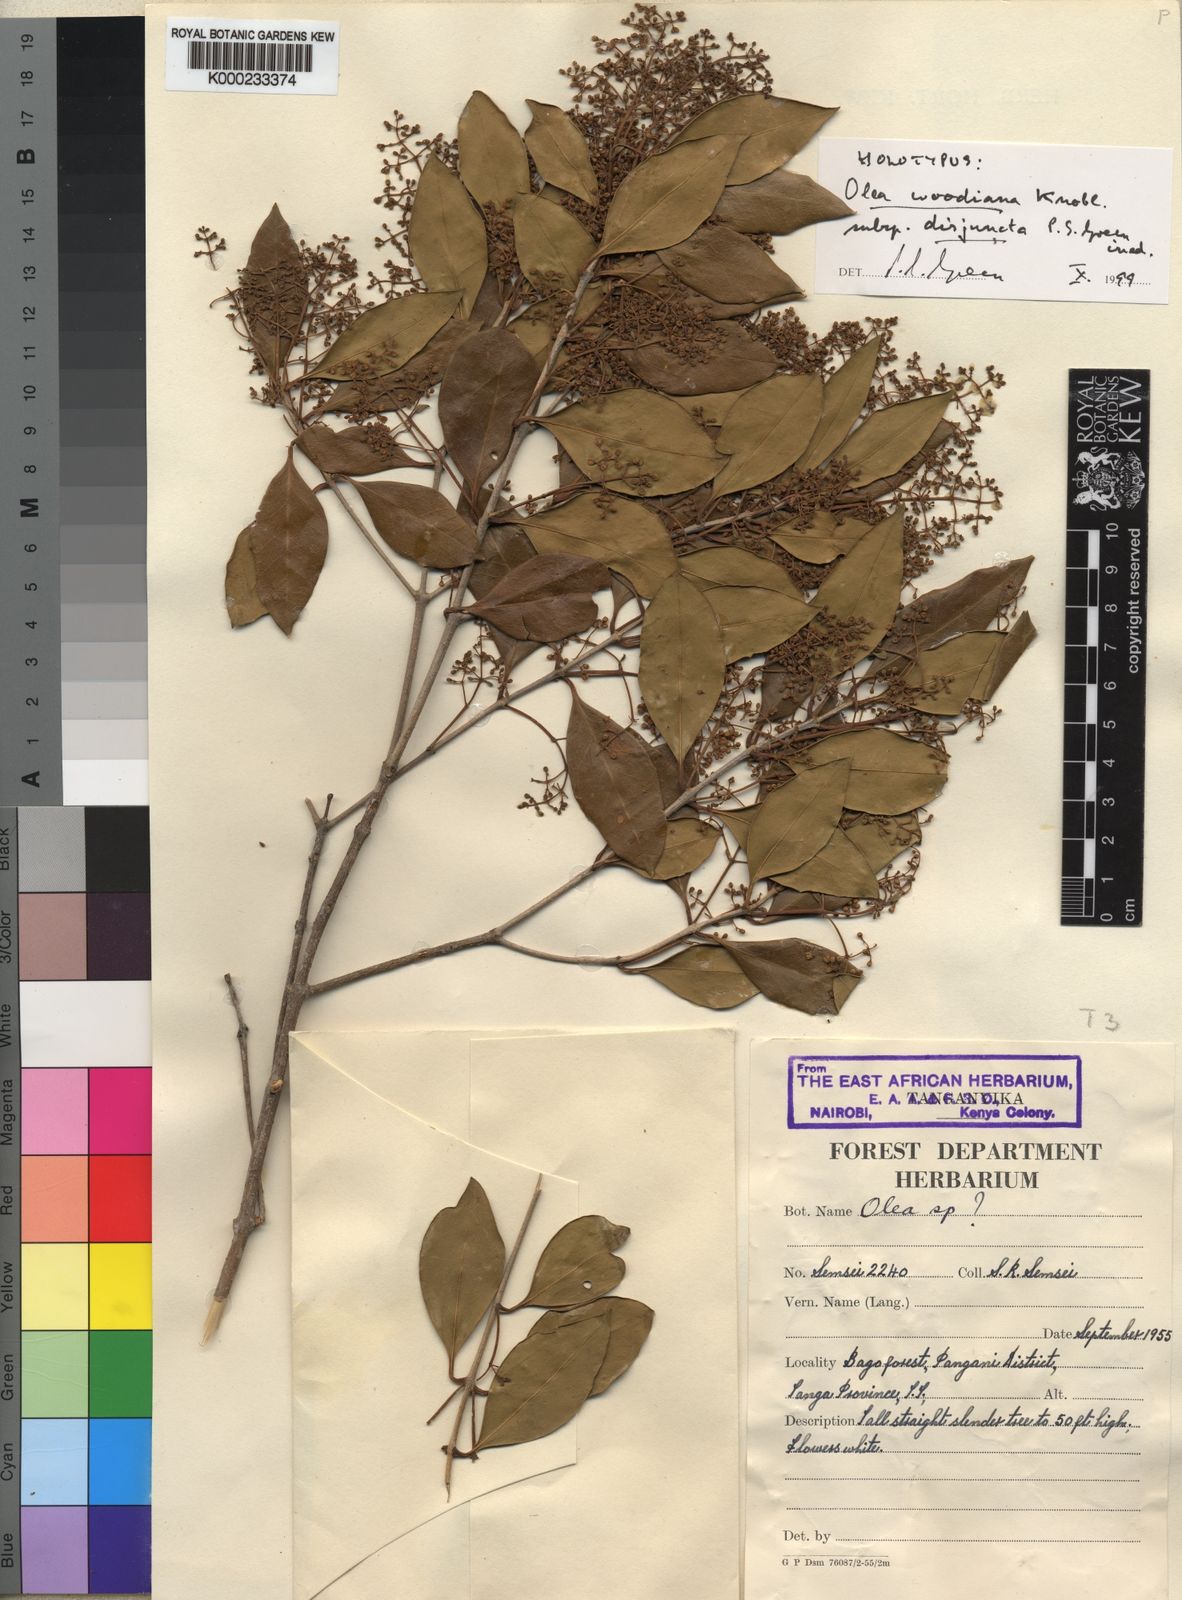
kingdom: Plantae
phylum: Tracheophyta
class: Magnoliopsida
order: Lamiales
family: Oleaceae
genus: Olea
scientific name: Olea woodiana
